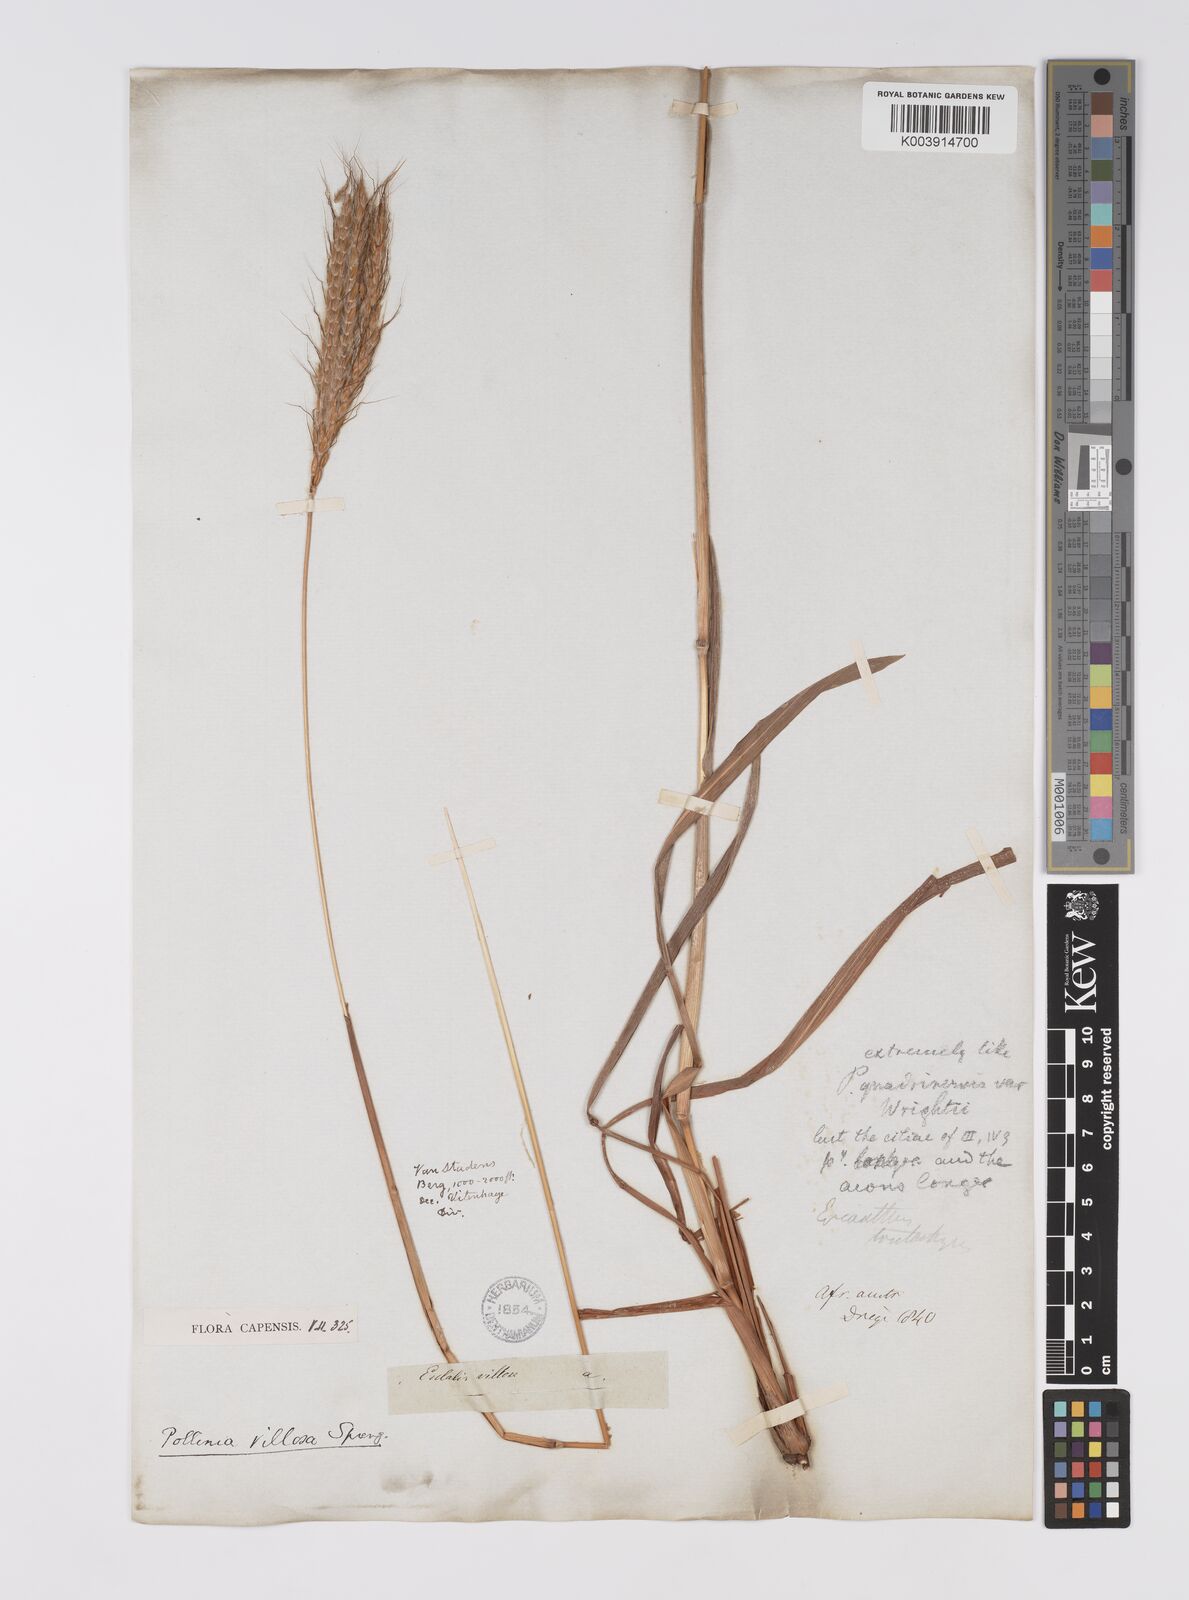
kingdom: Plantae
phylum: Tracheophyta
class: Liliopsida
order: Poales
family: Poaceae
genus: Eulalia
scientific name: Eulalia villosa
